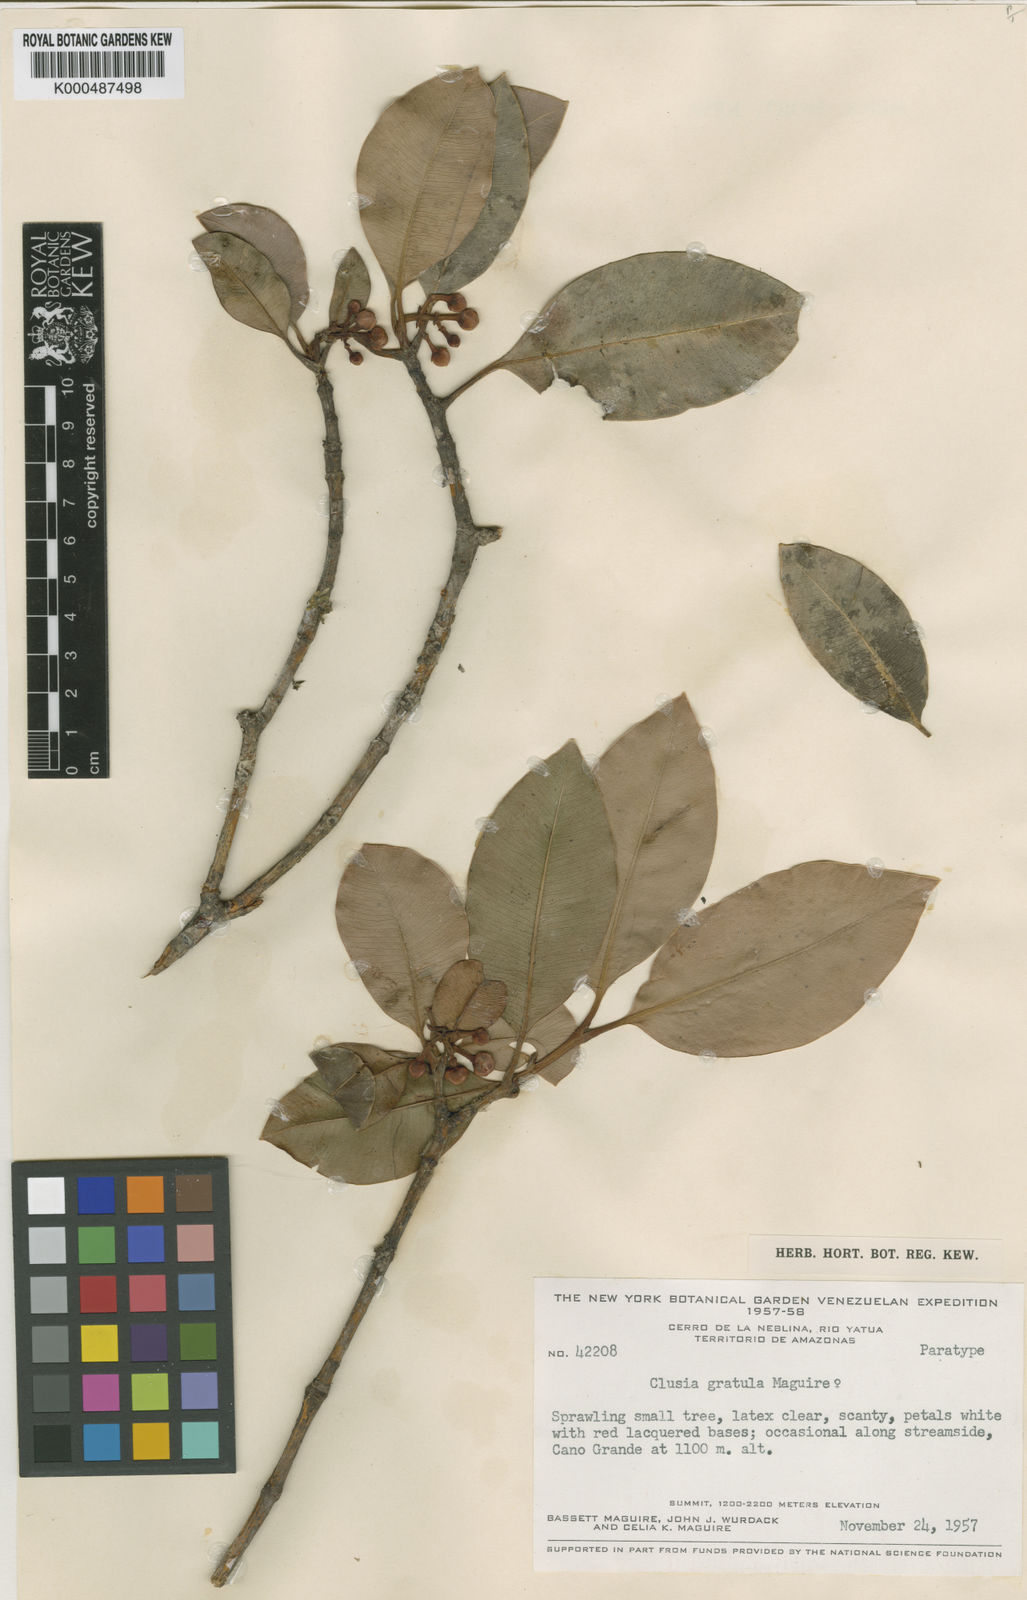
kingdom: Plantae
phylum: Tracheophyta
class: Magnoliopsida
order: Malpighiales
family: Clusiaceae
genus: Clusia
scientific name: Clusia gratula
